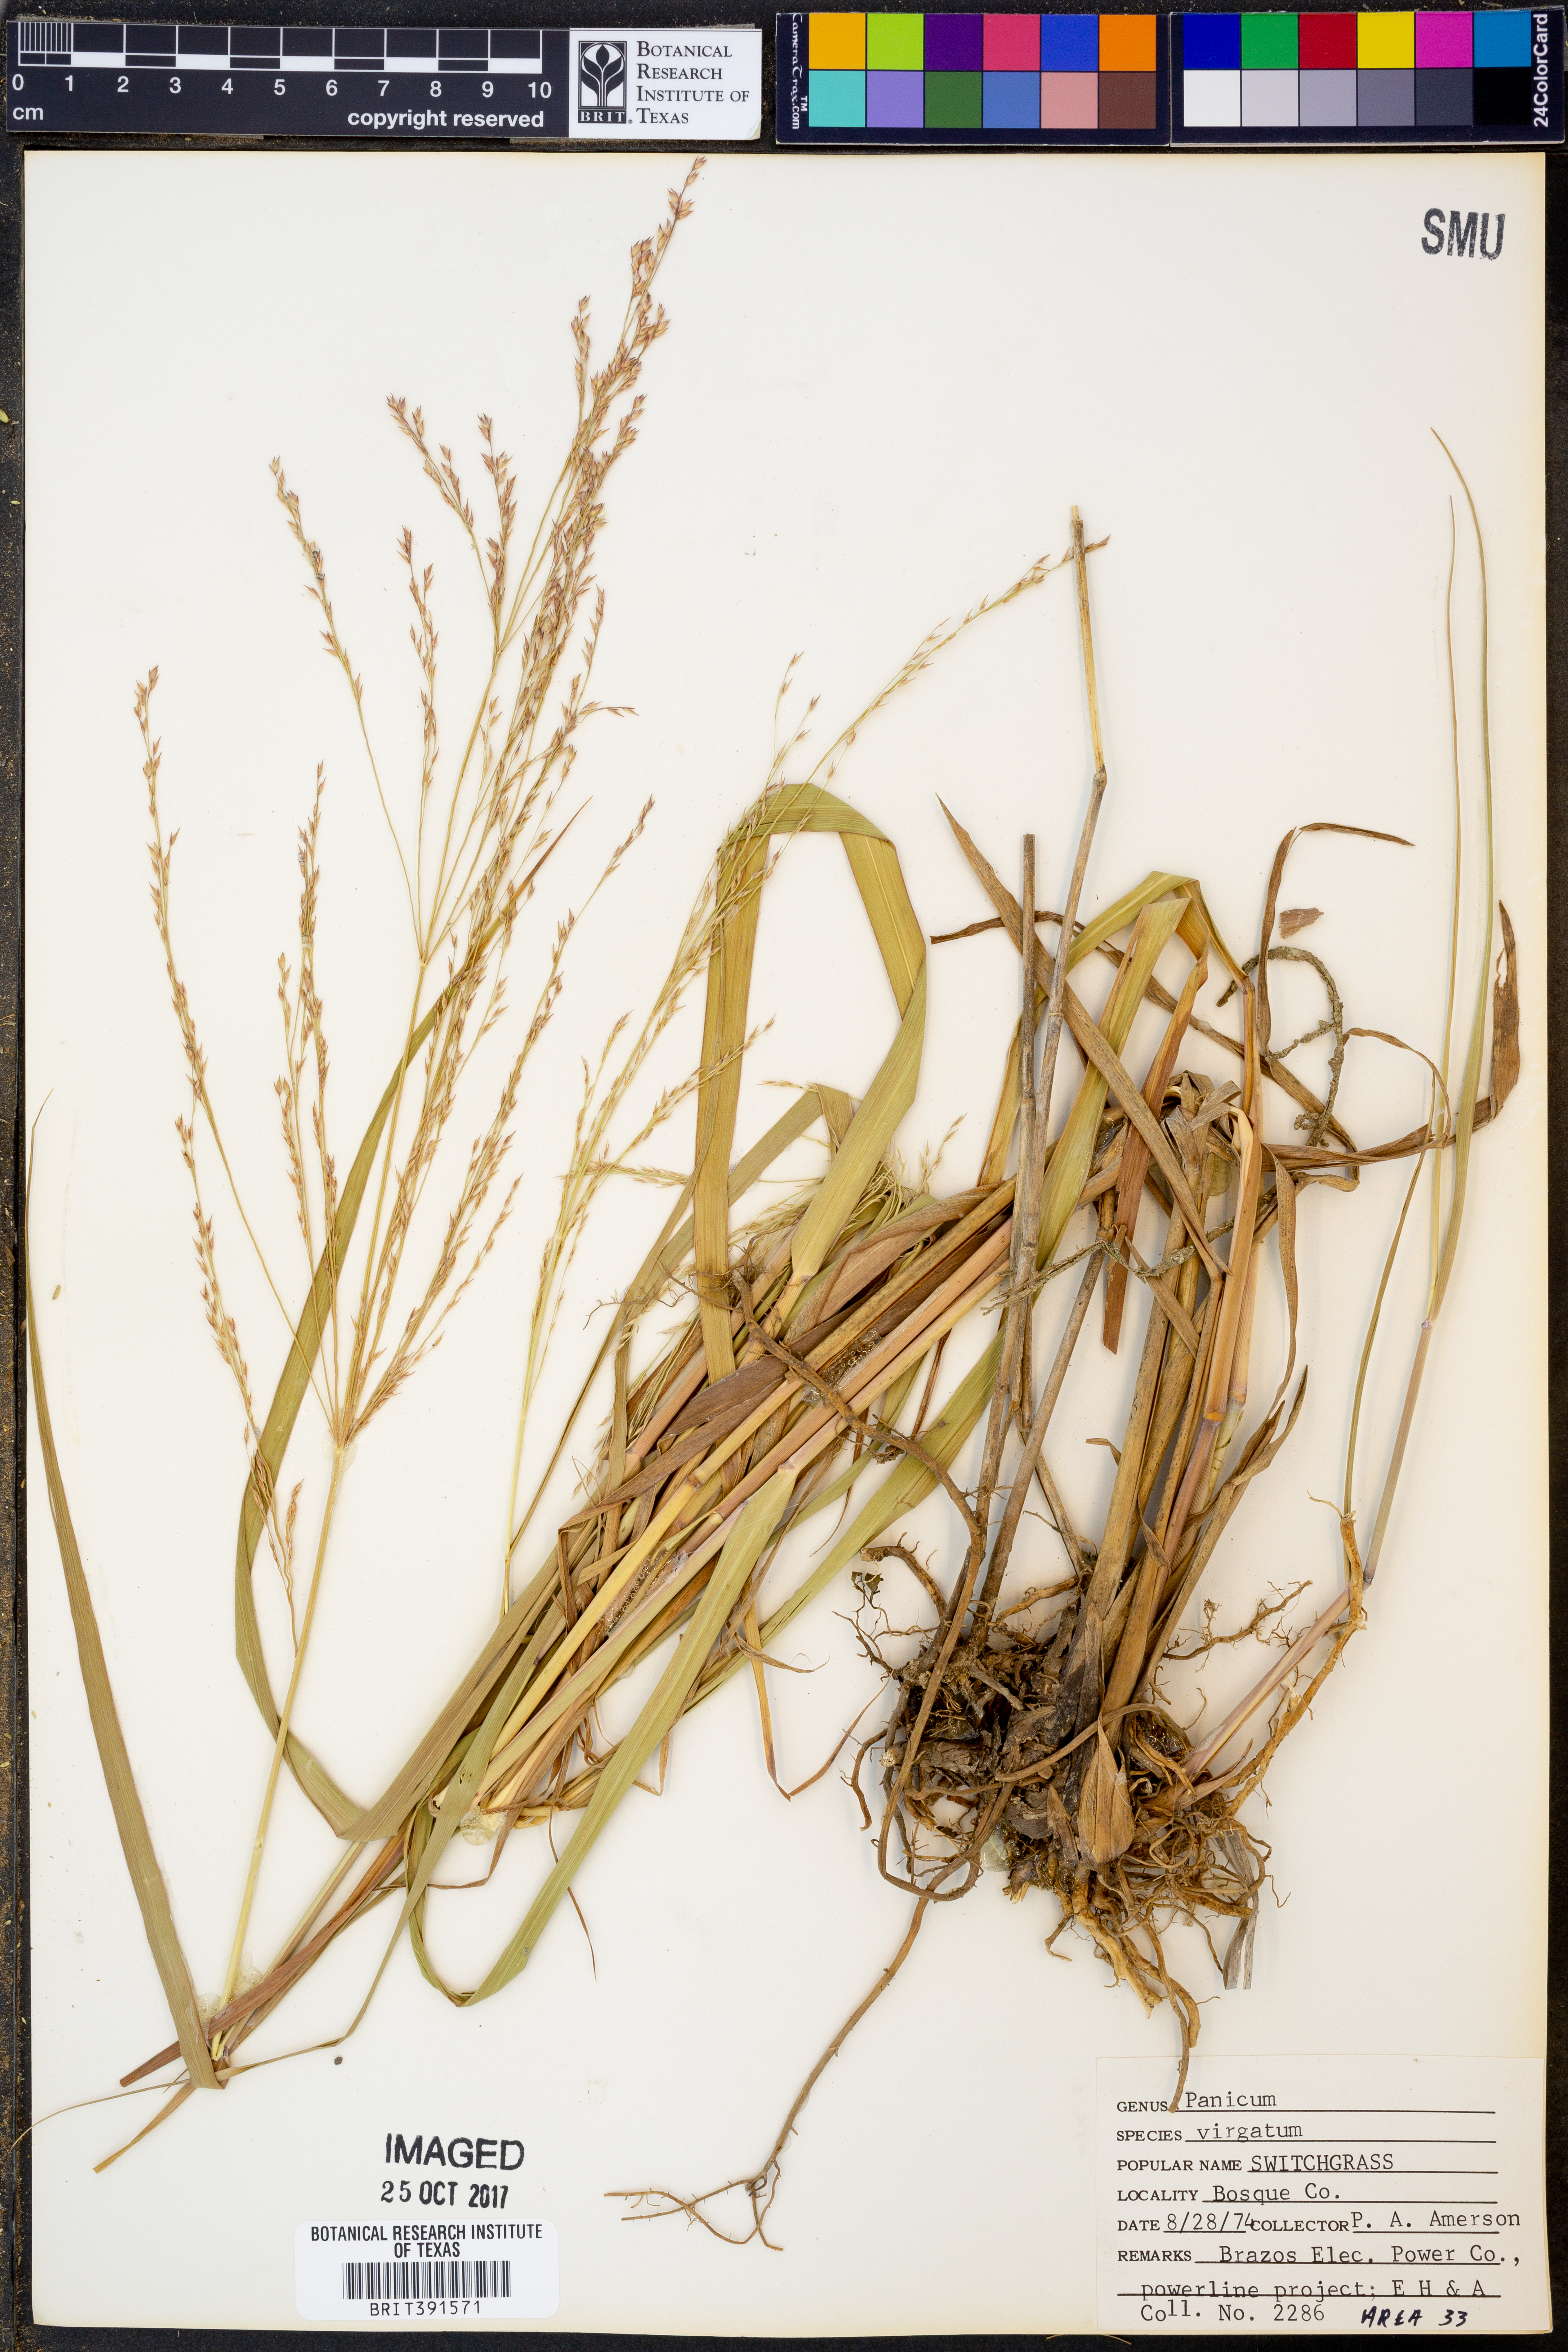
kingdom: Plantae
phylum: Tracheophyta
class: Liliopsida
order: Poales
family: Poaceae
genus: Panicum
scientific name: Panicum virgatum
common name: Switchgrass
